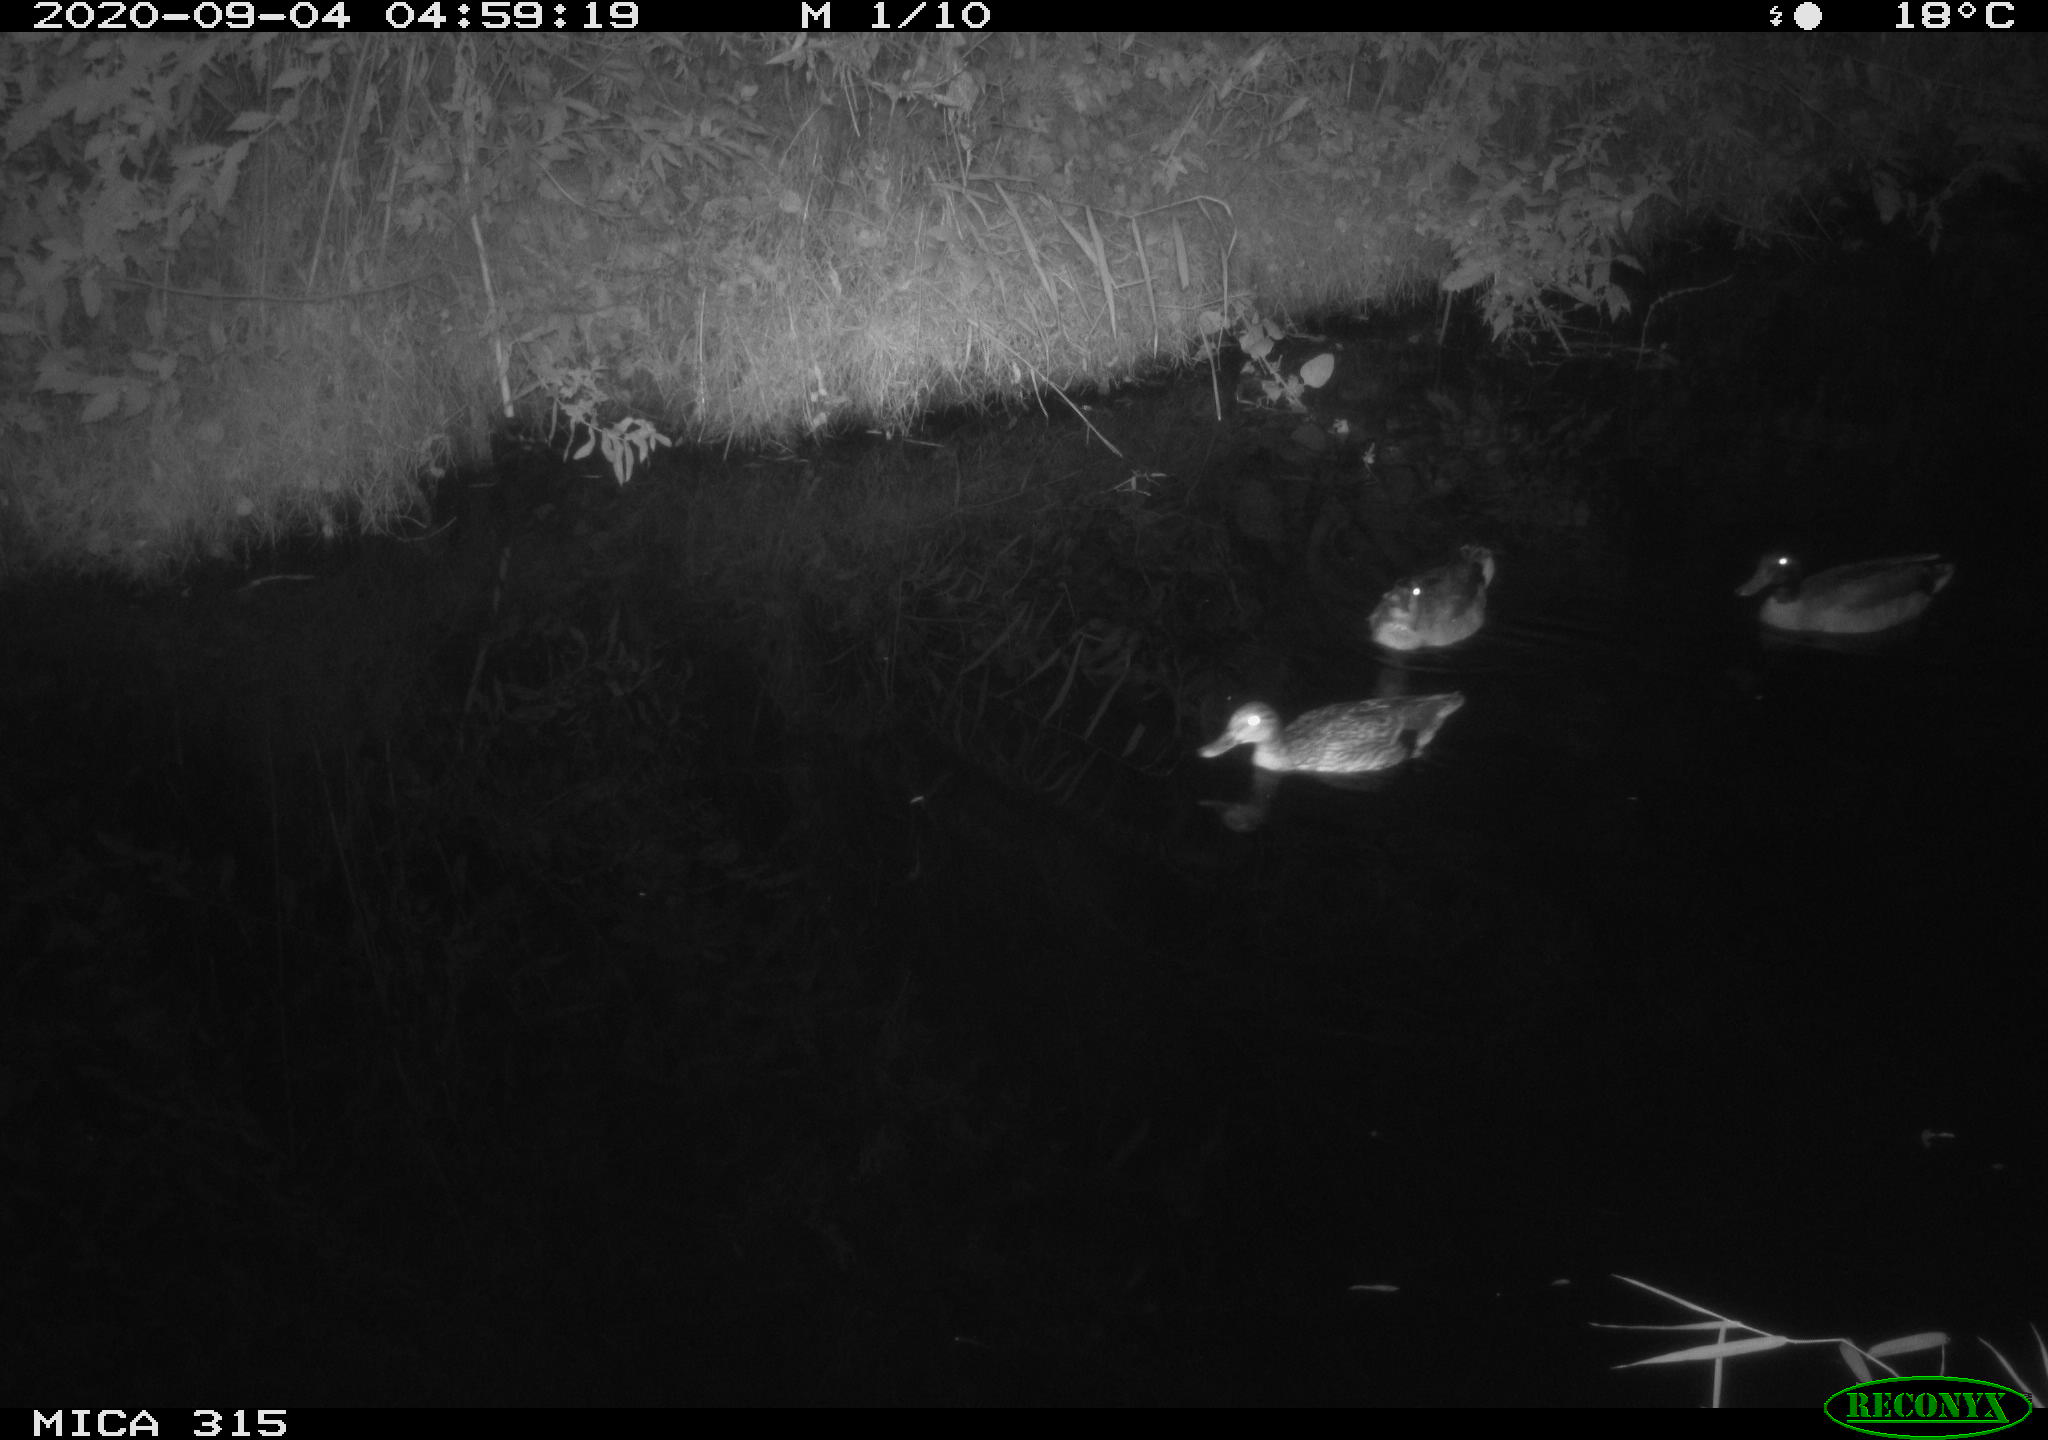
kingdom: Animalia
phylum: Chordata
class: Aves
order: Anseriformes
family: Anatidae
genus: Anas
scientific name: Anas platyrhynchos
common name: Mallard
